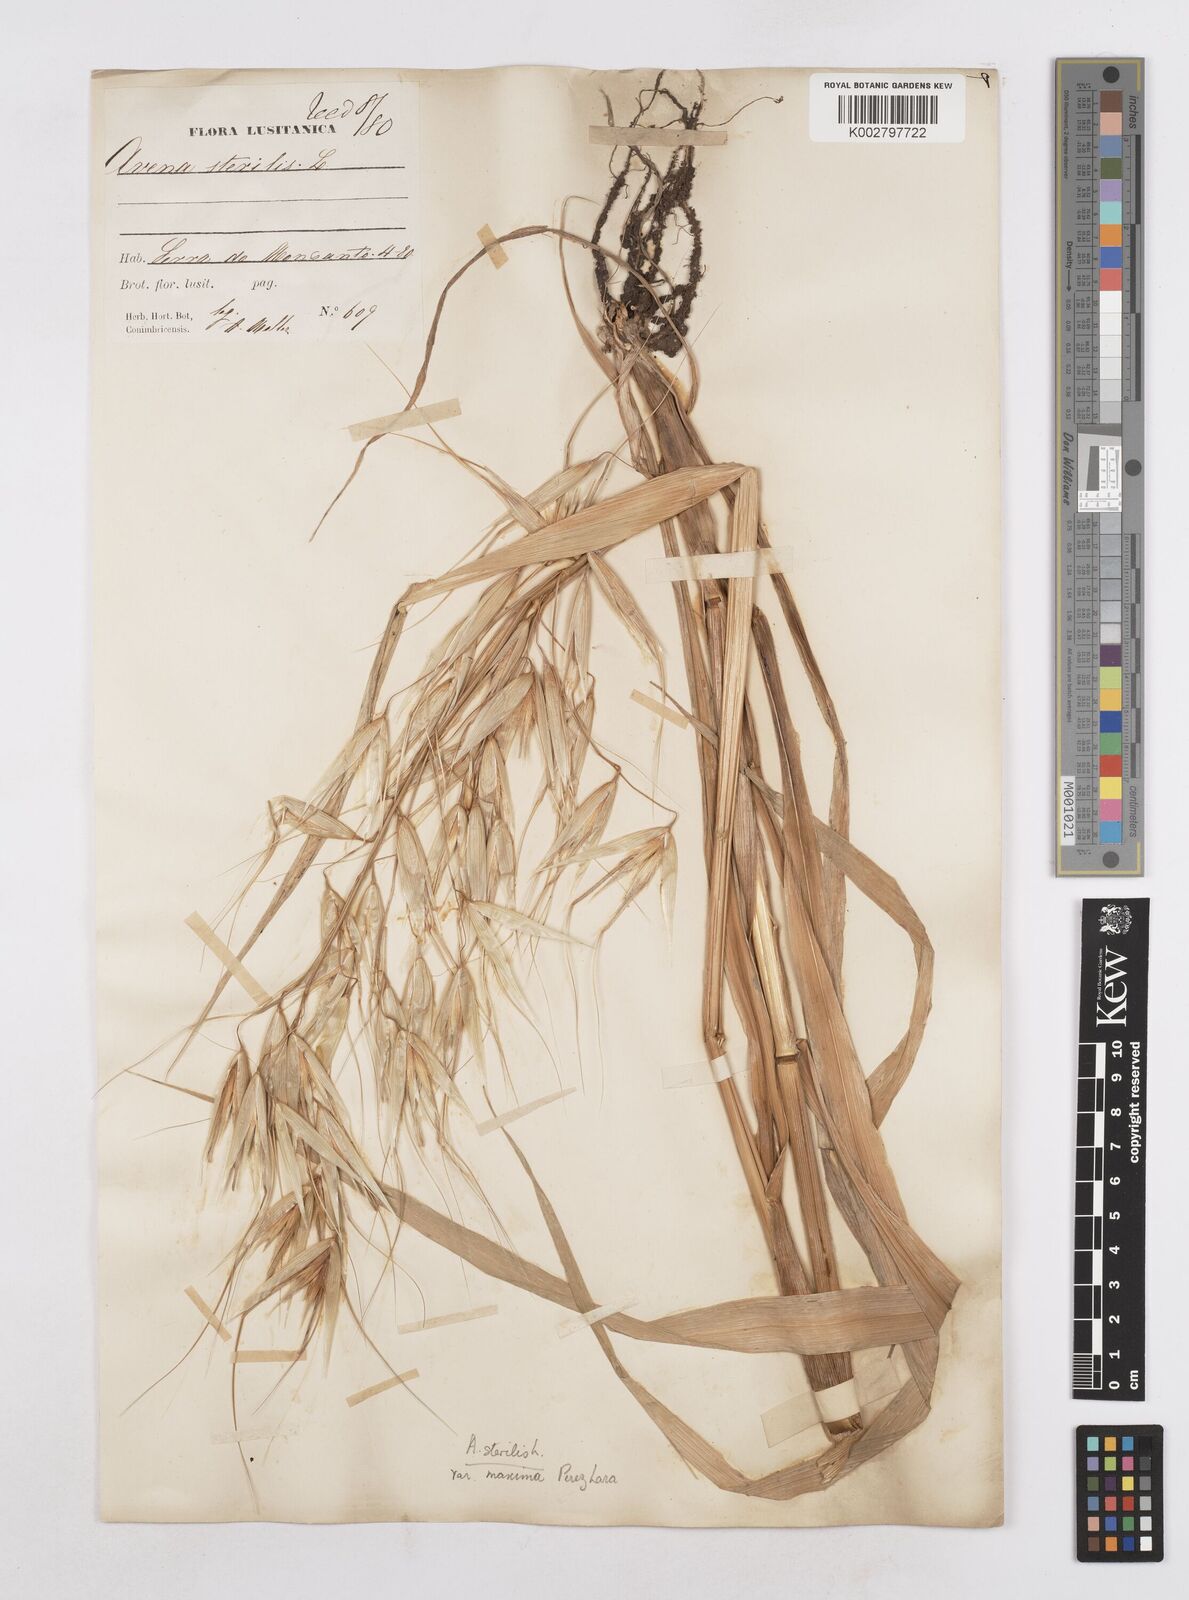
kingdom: Plantae
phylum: Tracheophyta
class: Liliopsida
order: Poales
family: Poaceae
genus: Avena
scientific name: Avena sterilis
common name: Animated oat
